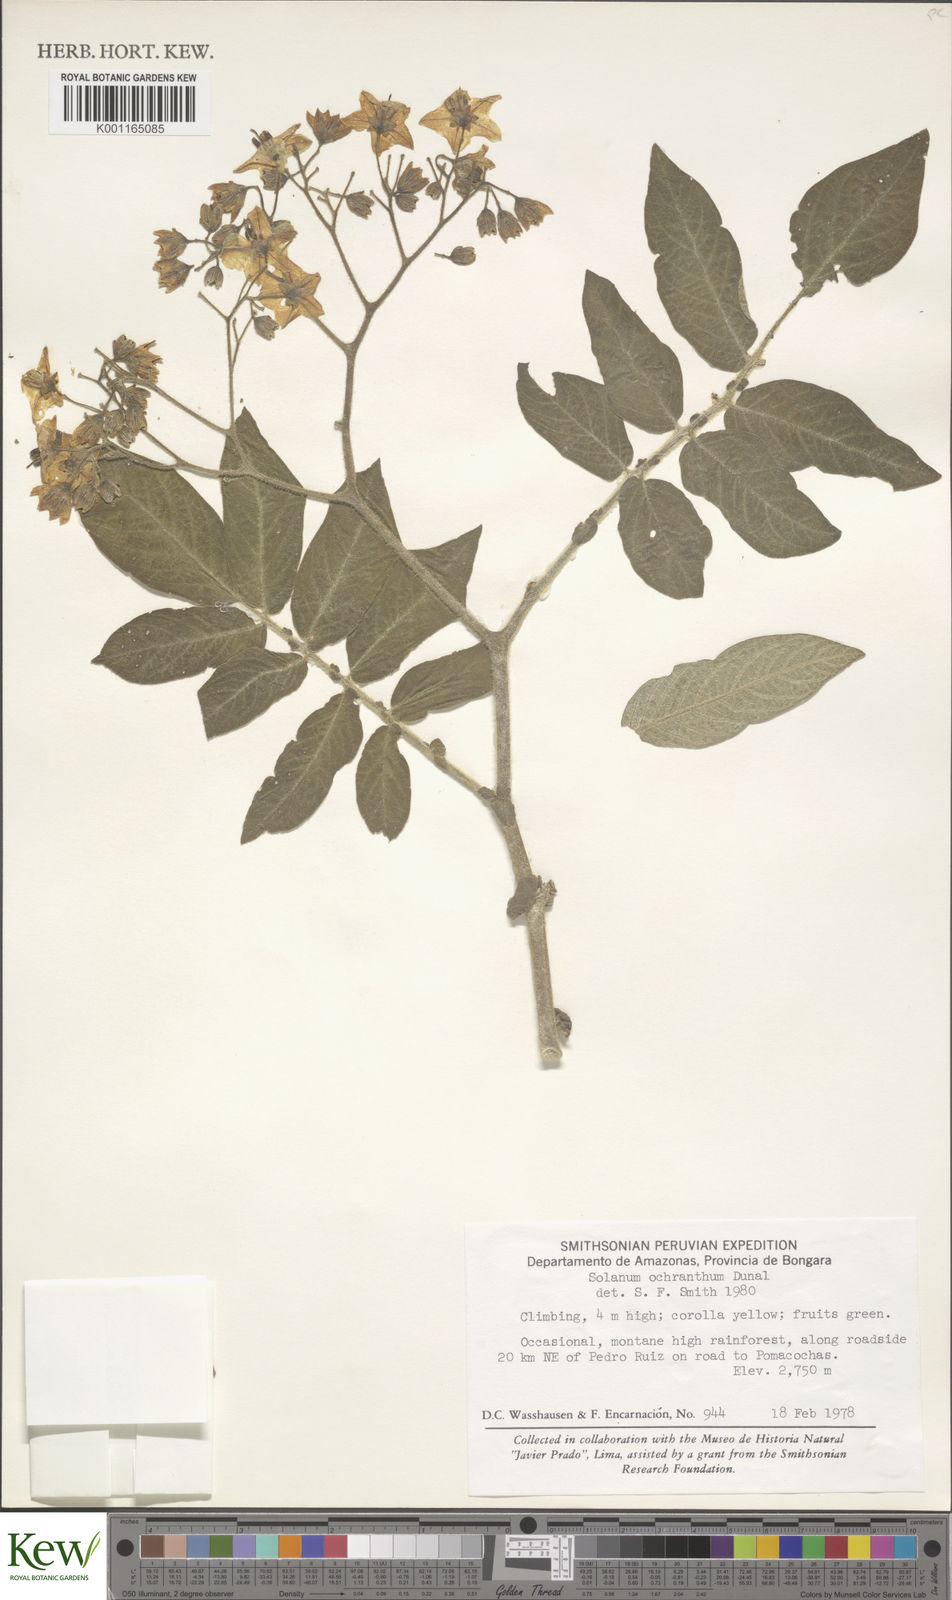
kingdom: Plantae
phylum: Tracheophyta
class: Magnoliopsida
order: Solanales
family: Solanaceae
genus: Solanum
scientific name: Solanum ochranthum
